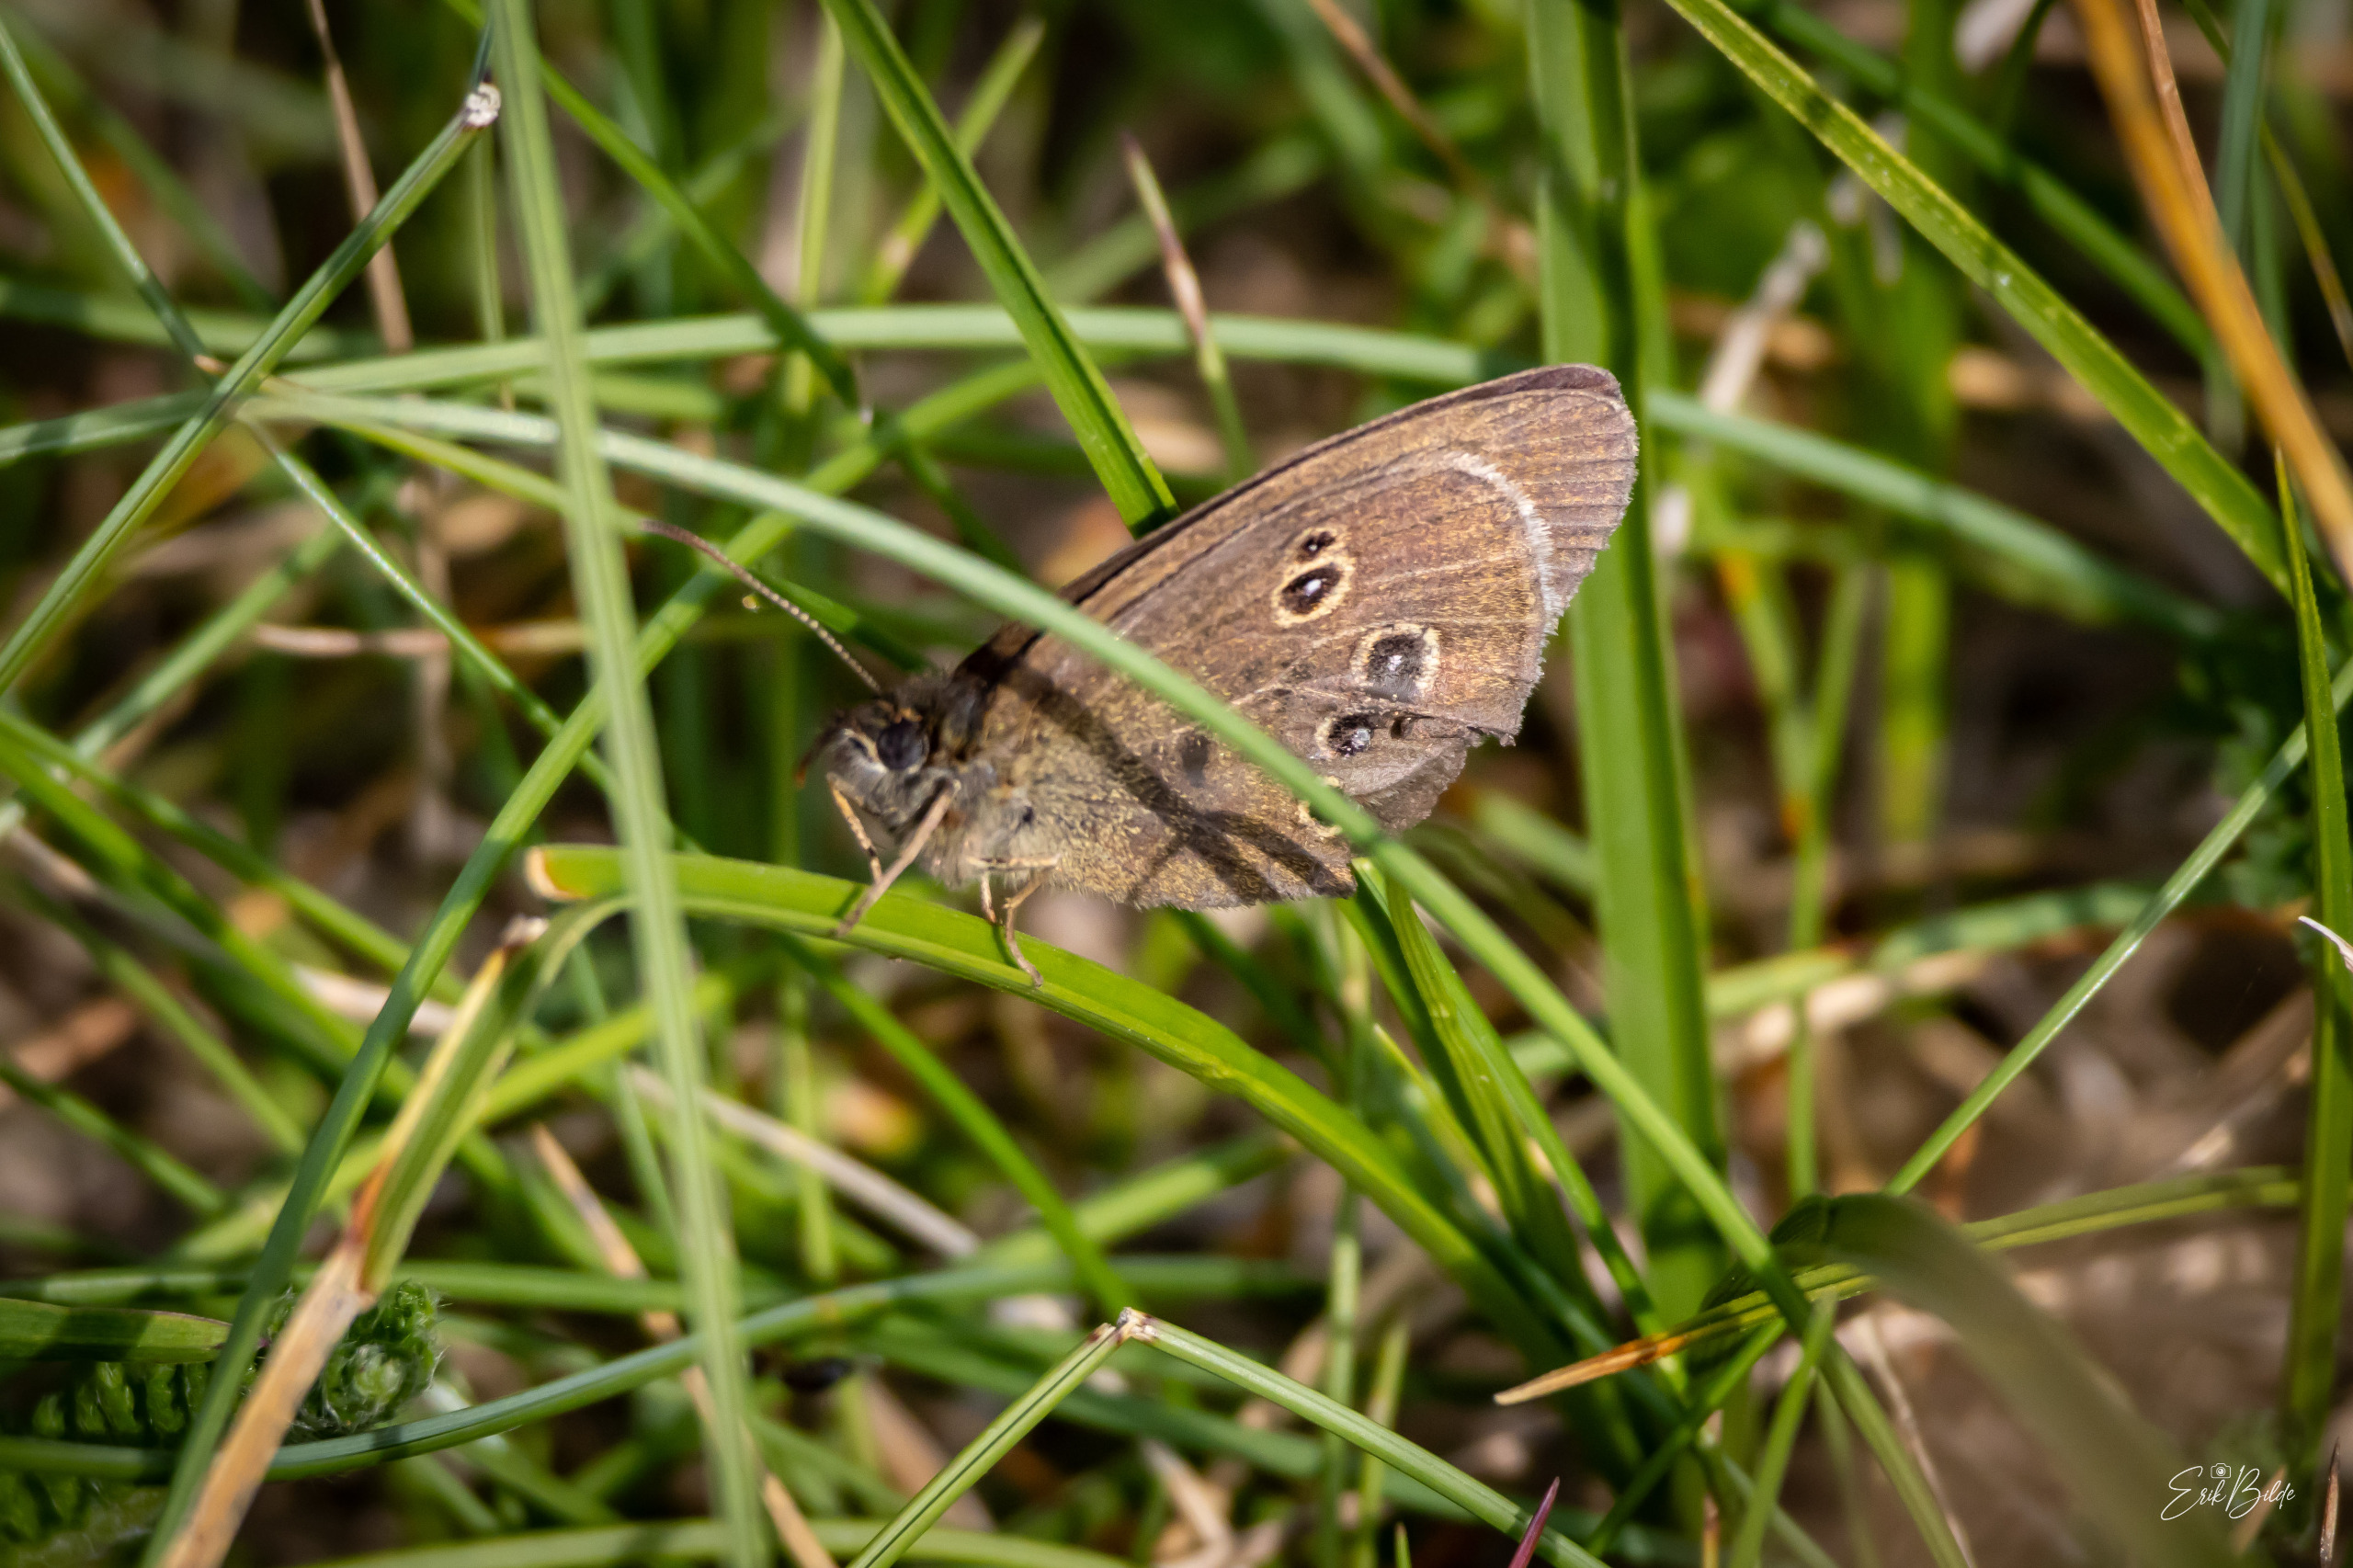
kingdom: Animalia
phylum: Arthropoda
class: Insecta
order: Lepidoptera
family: Nymphalidae
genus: Aphantopus
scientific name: Aphantopus hyperantus
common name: Engrandøje
